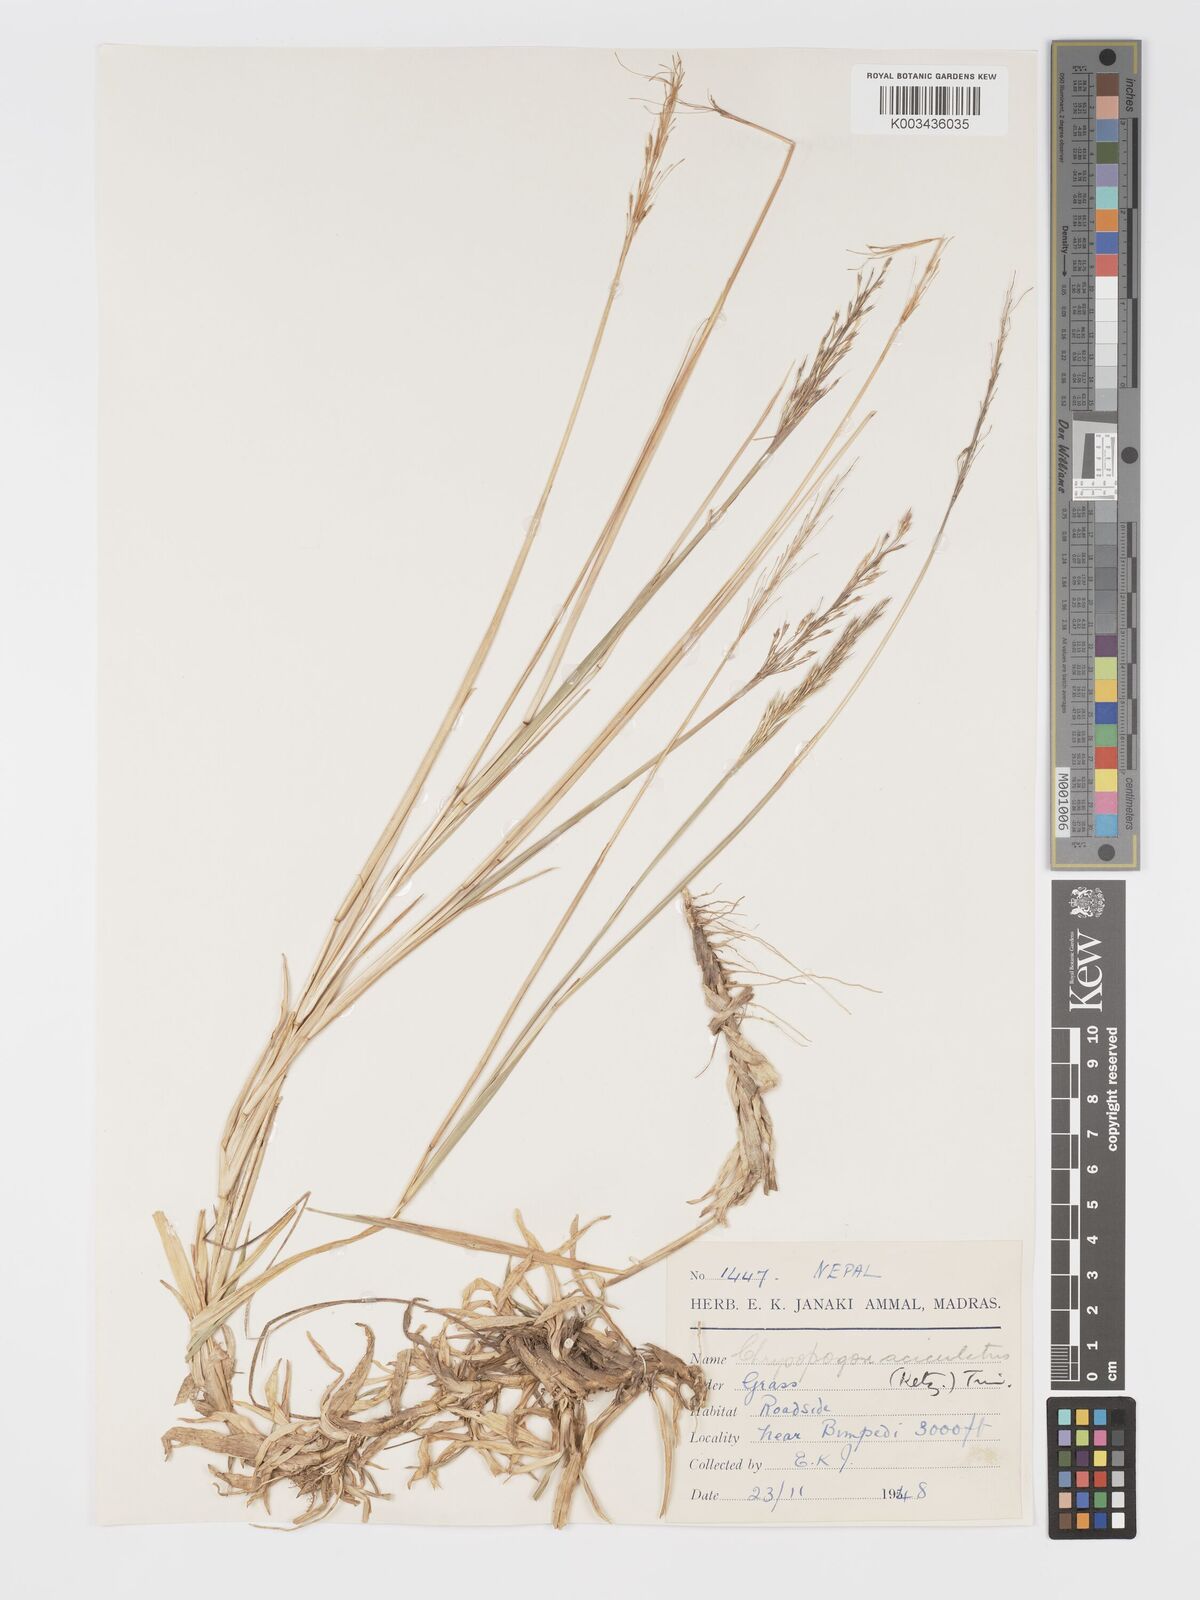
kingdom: Plantae
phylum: Tracheophyta
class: Liliopsida
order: Poales
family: Poaceae
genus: Chrysopogon
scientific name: Chrysopogon aciculatus
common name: Pilipiliula
